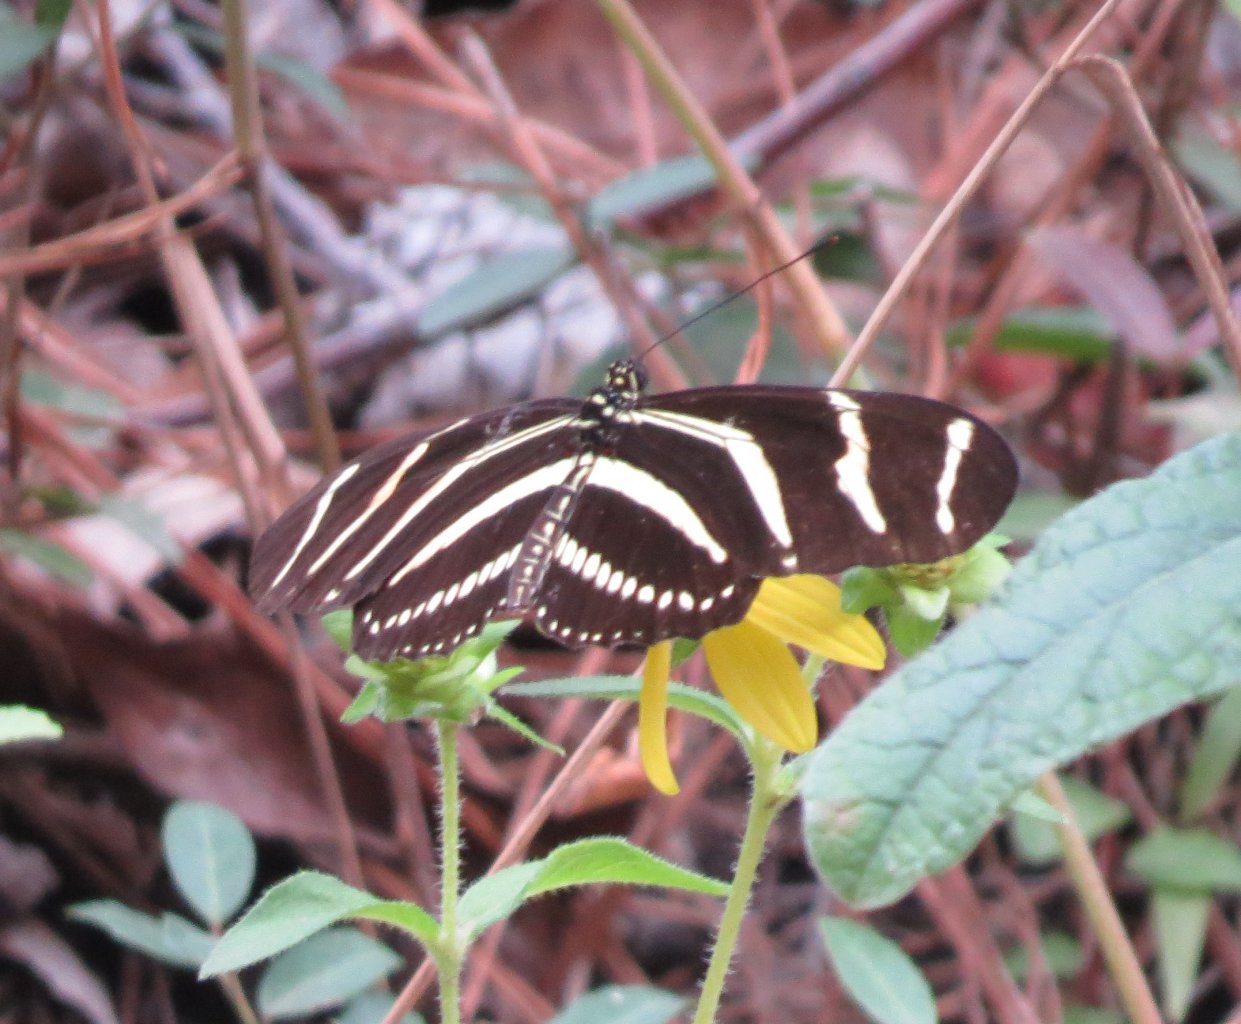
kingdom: Animalia
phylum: Arthropoda
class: Insecta
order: Lepidoptera
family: Nymphalidae
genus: Heliconius
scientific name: Heliconius charithonia
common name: Zebra Longwing
